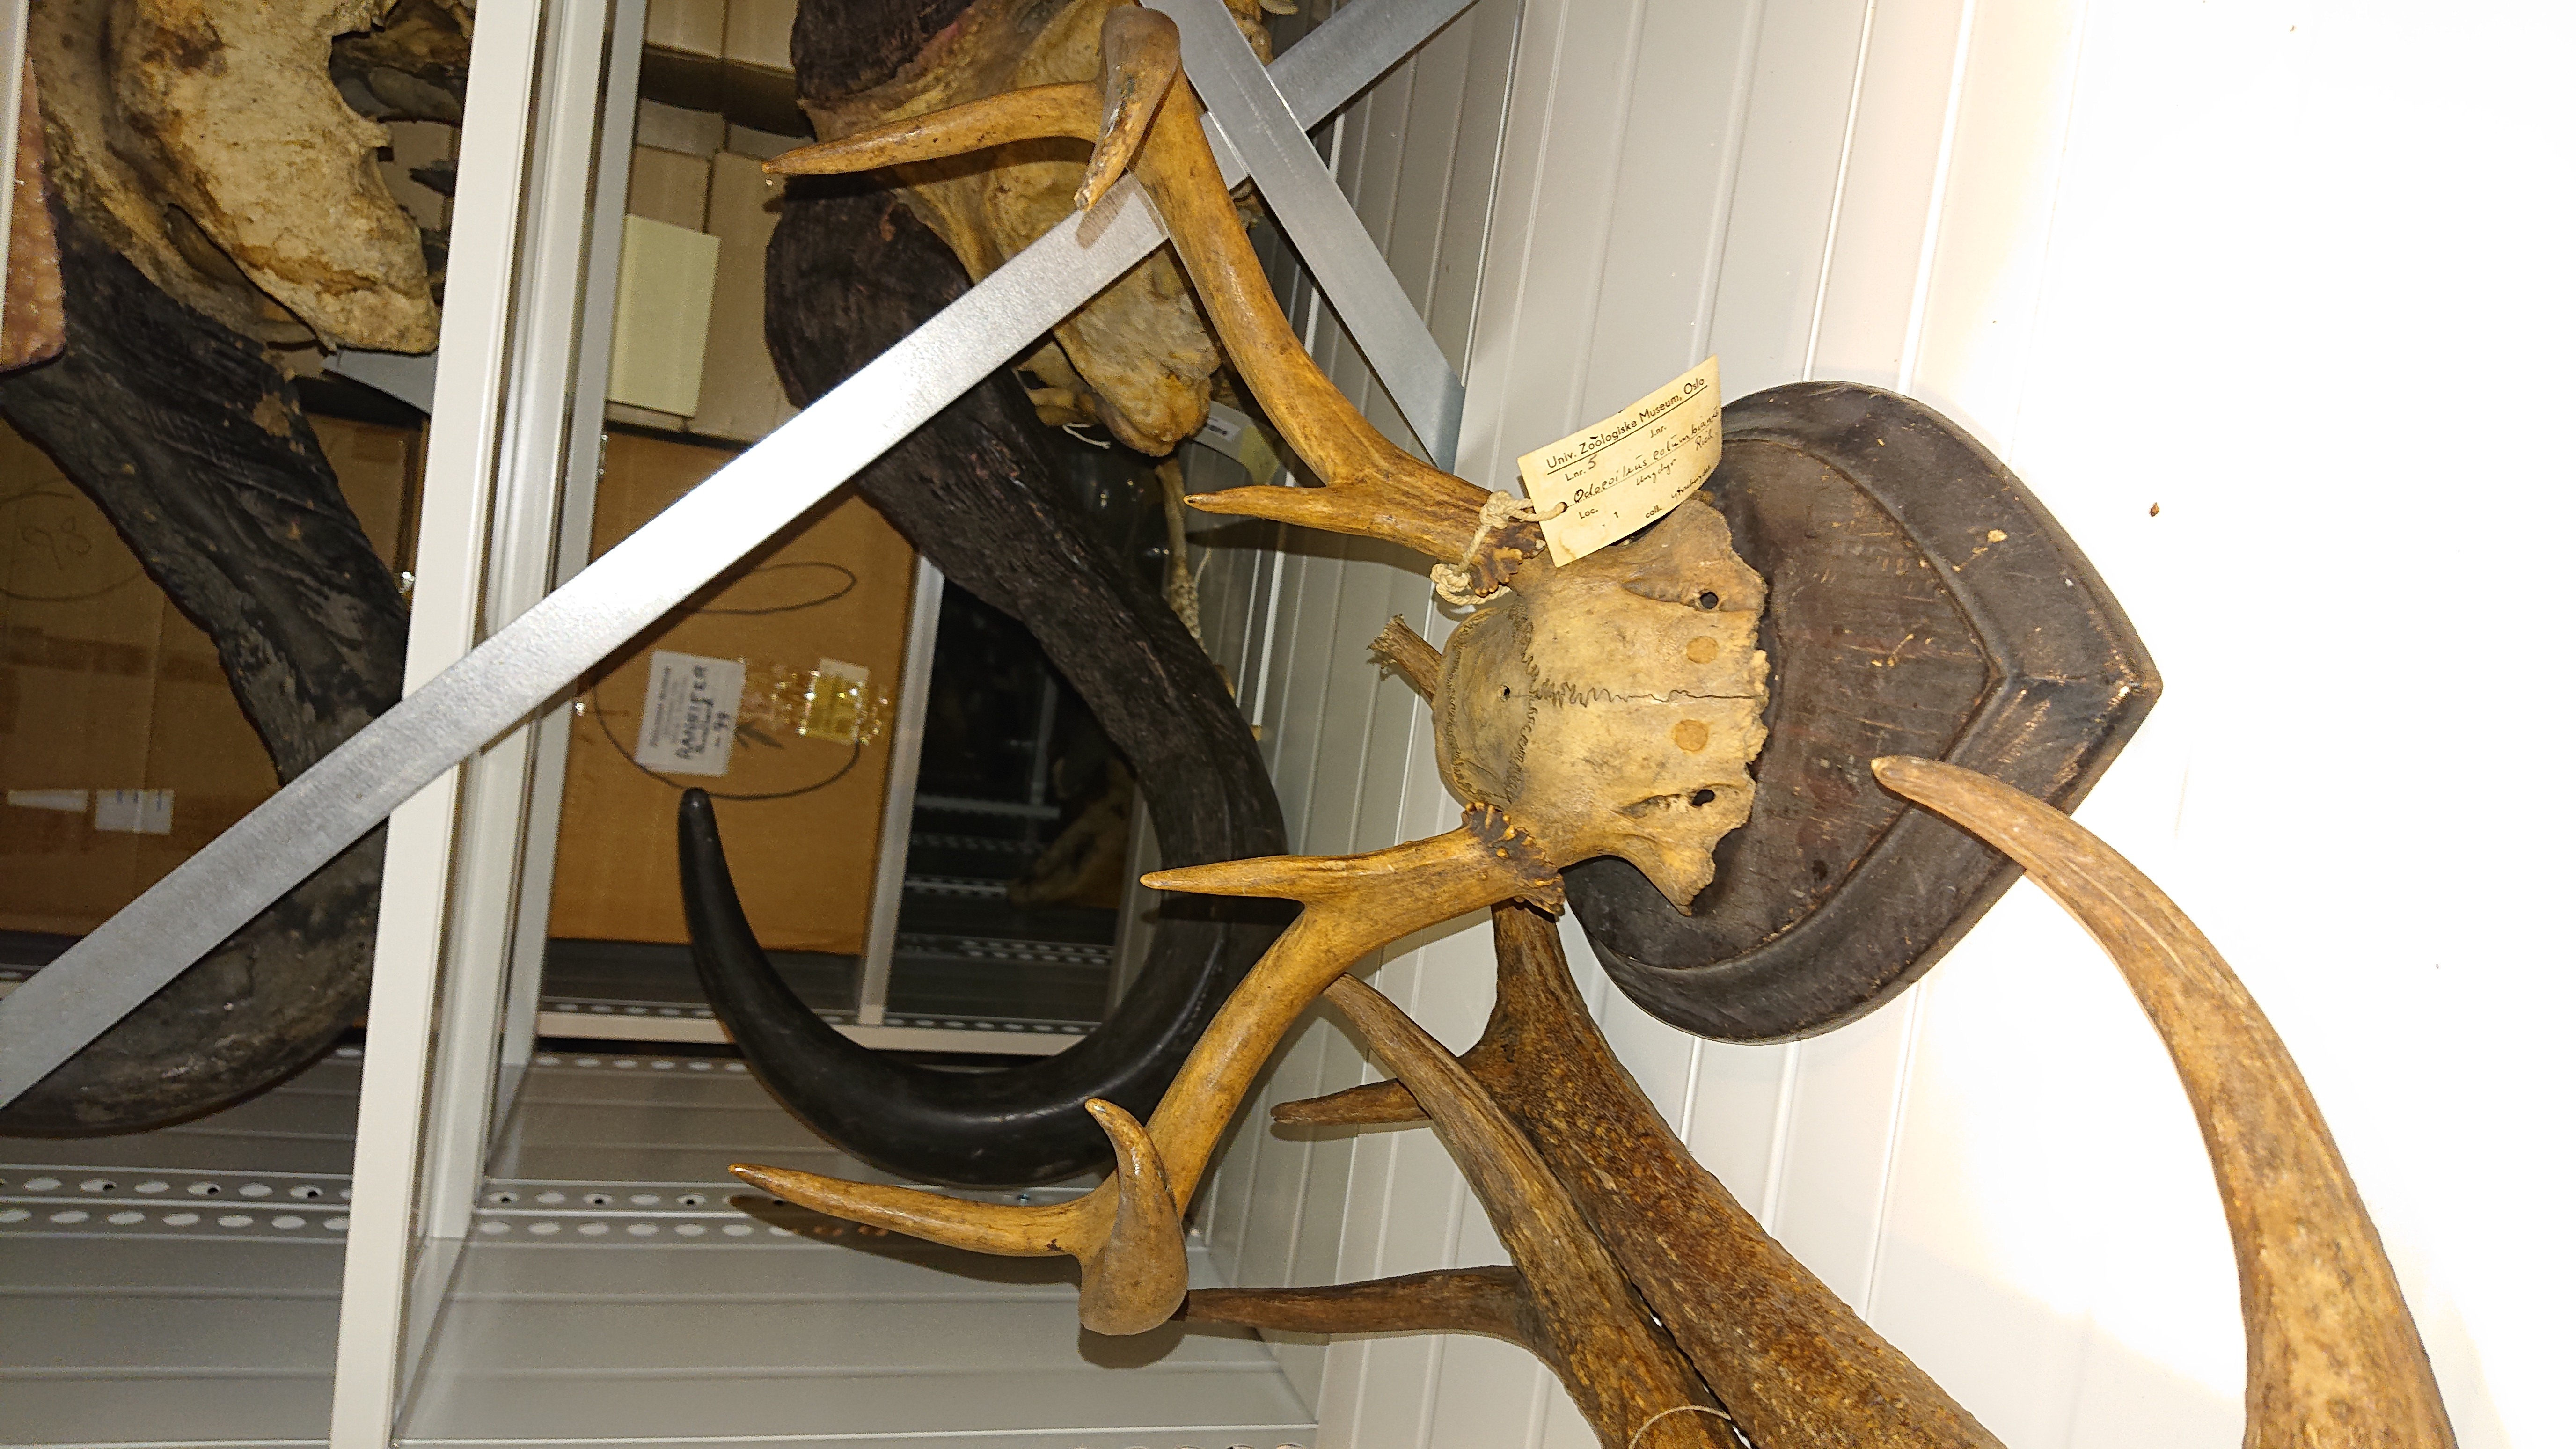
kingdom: Animalia
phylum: Chordata
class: Mammalia
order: Artiodactyla
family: Cervidae
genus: Odocoileus
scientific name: Odocoileus hemionus
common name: Mule deer
